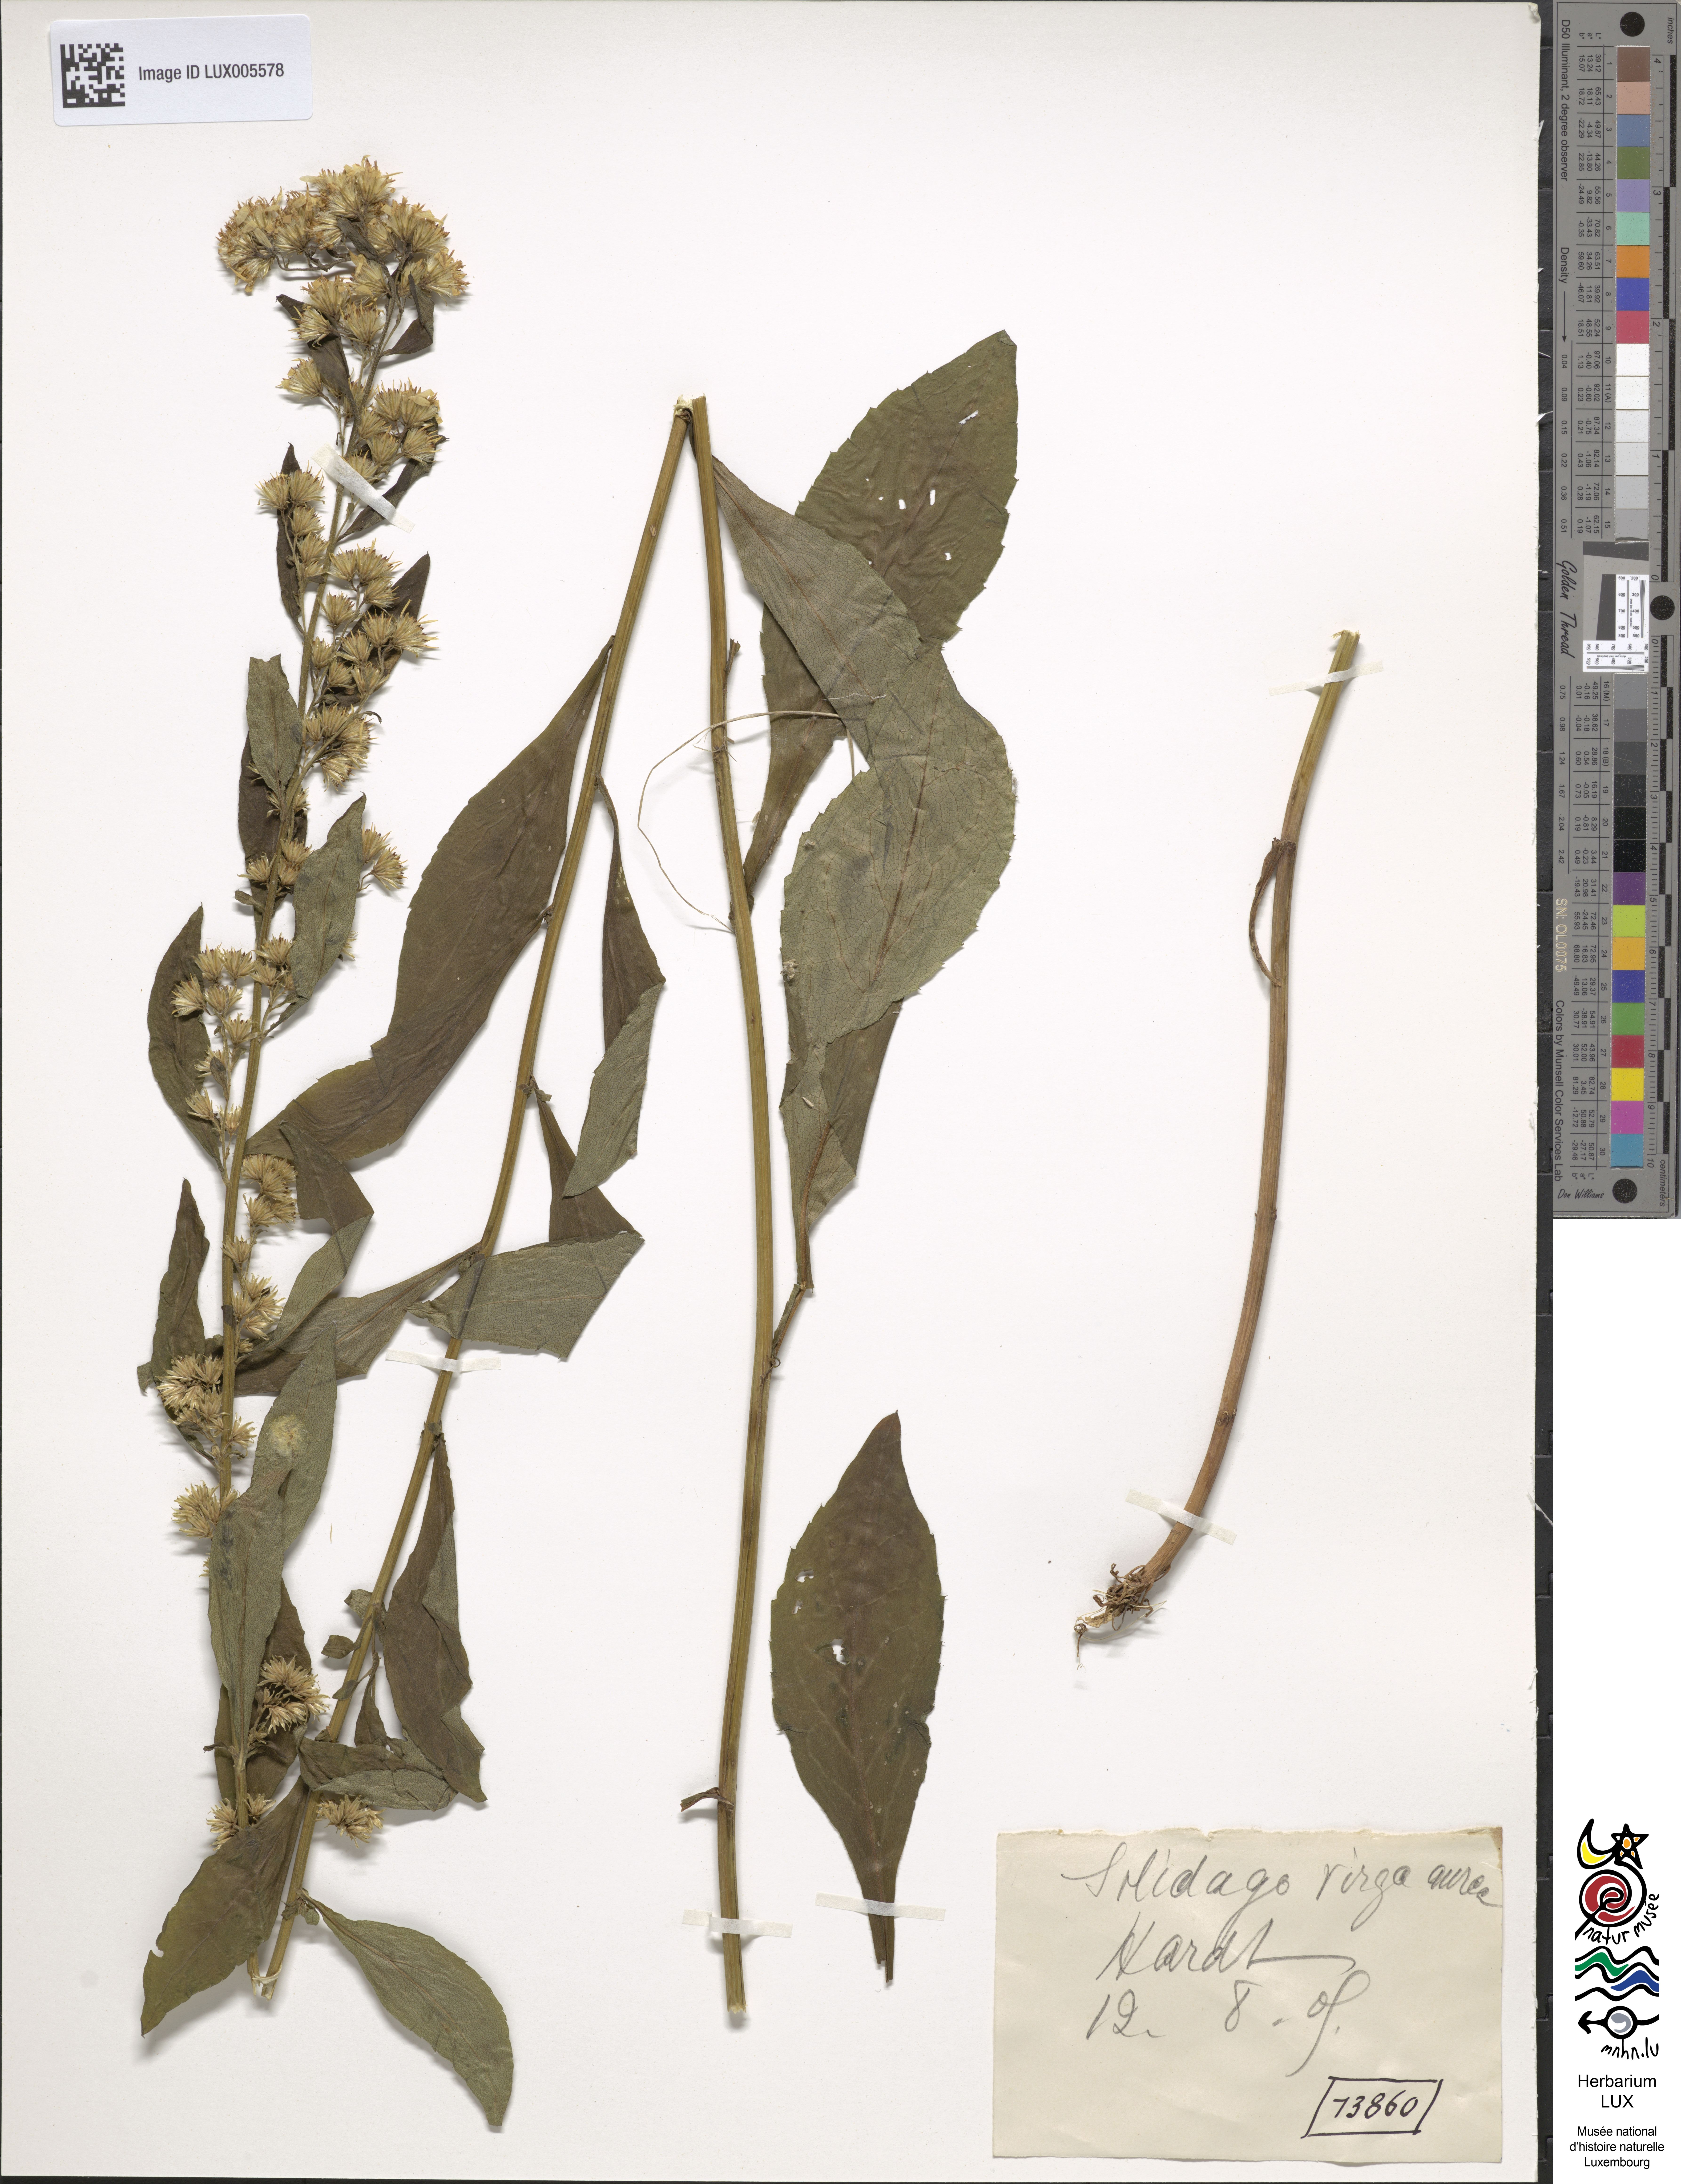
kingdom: Plantae
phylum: Tracheophyta
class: Magnoliopsida
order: Asterales
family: Asteraceae
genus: Solidago
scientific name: Solidago virgaurea
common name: Goldenrod
